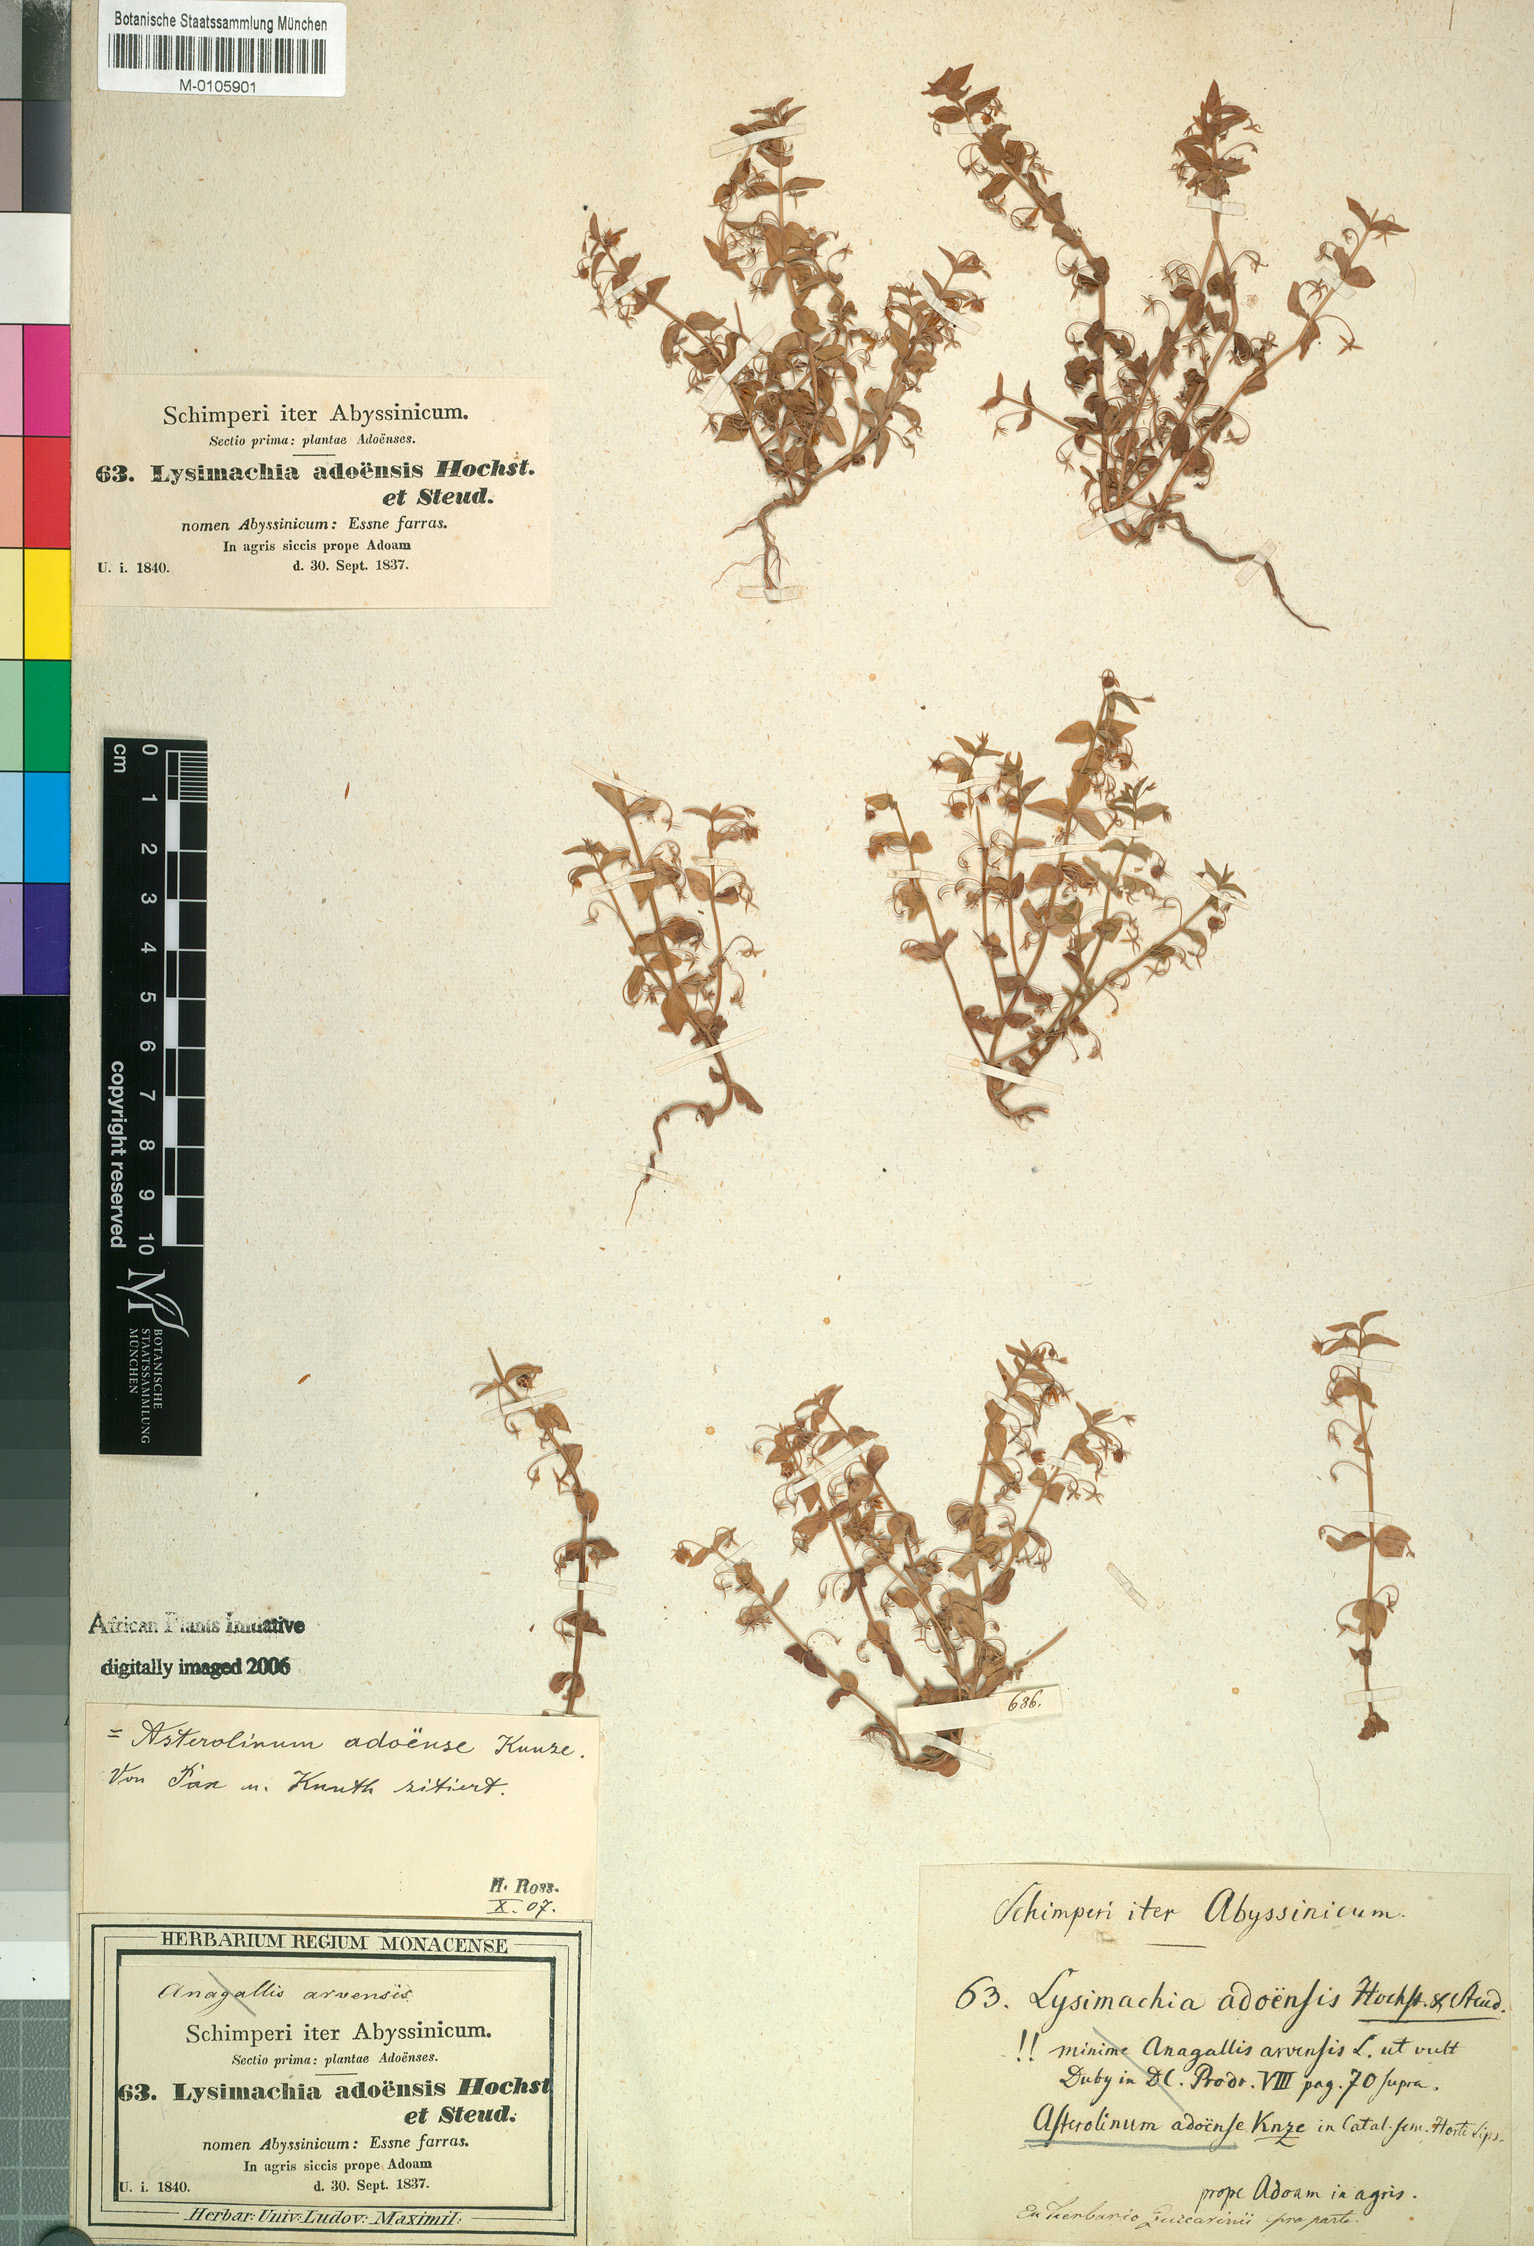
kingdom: Plantae
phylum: Tracheophyta
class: Magnoliopsida
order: Ericales
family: Primulaceae
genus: Lysimachia
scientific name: Lysimachia arvensis
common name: Scarlet pimpernel
